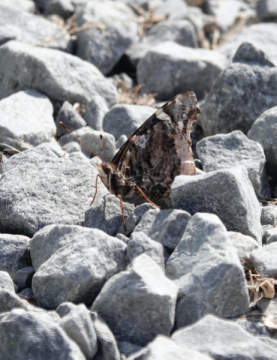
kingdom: Animalia
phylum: Arthropoda
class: Insecta
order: Lepidoptera
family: Nymphalidae
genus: Vanessa
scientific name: Vanessa atalanta
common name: Red Admiral
